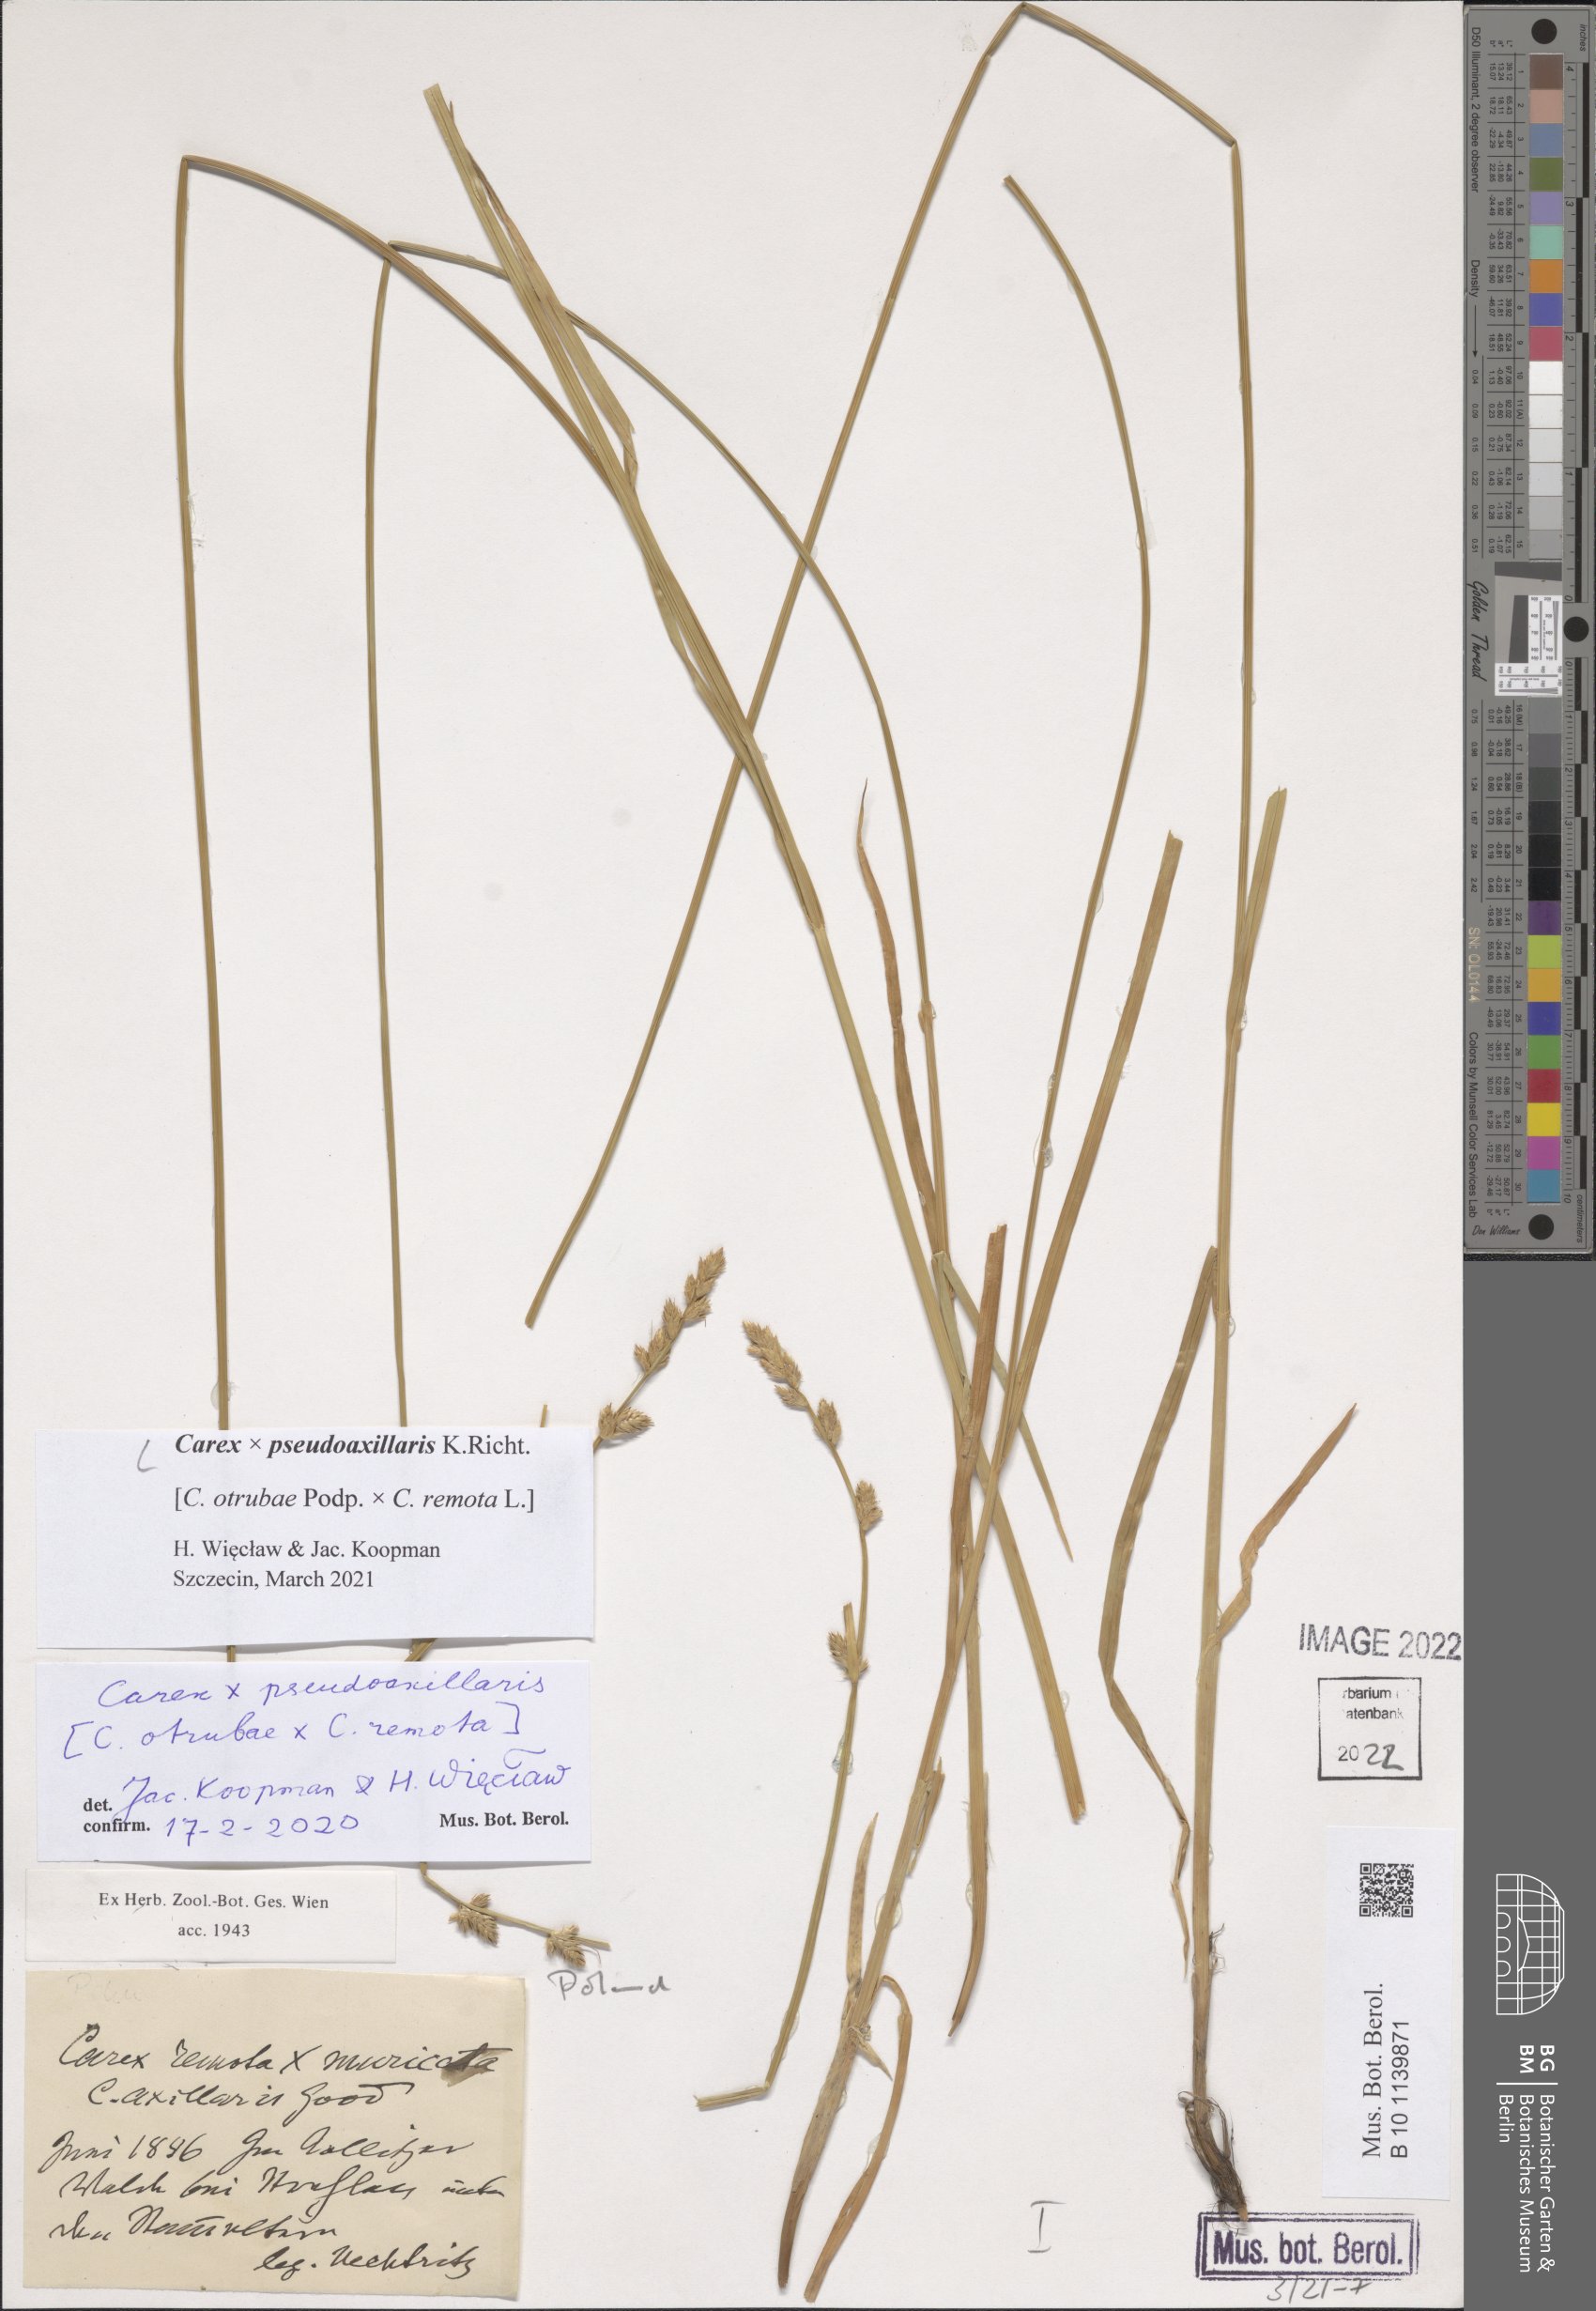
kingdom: Plantae
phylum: Tracheophyta
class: Liliopsida
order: Poales
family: Cyperaceae
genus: Carex
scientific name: Carex pseudoaxillaris
